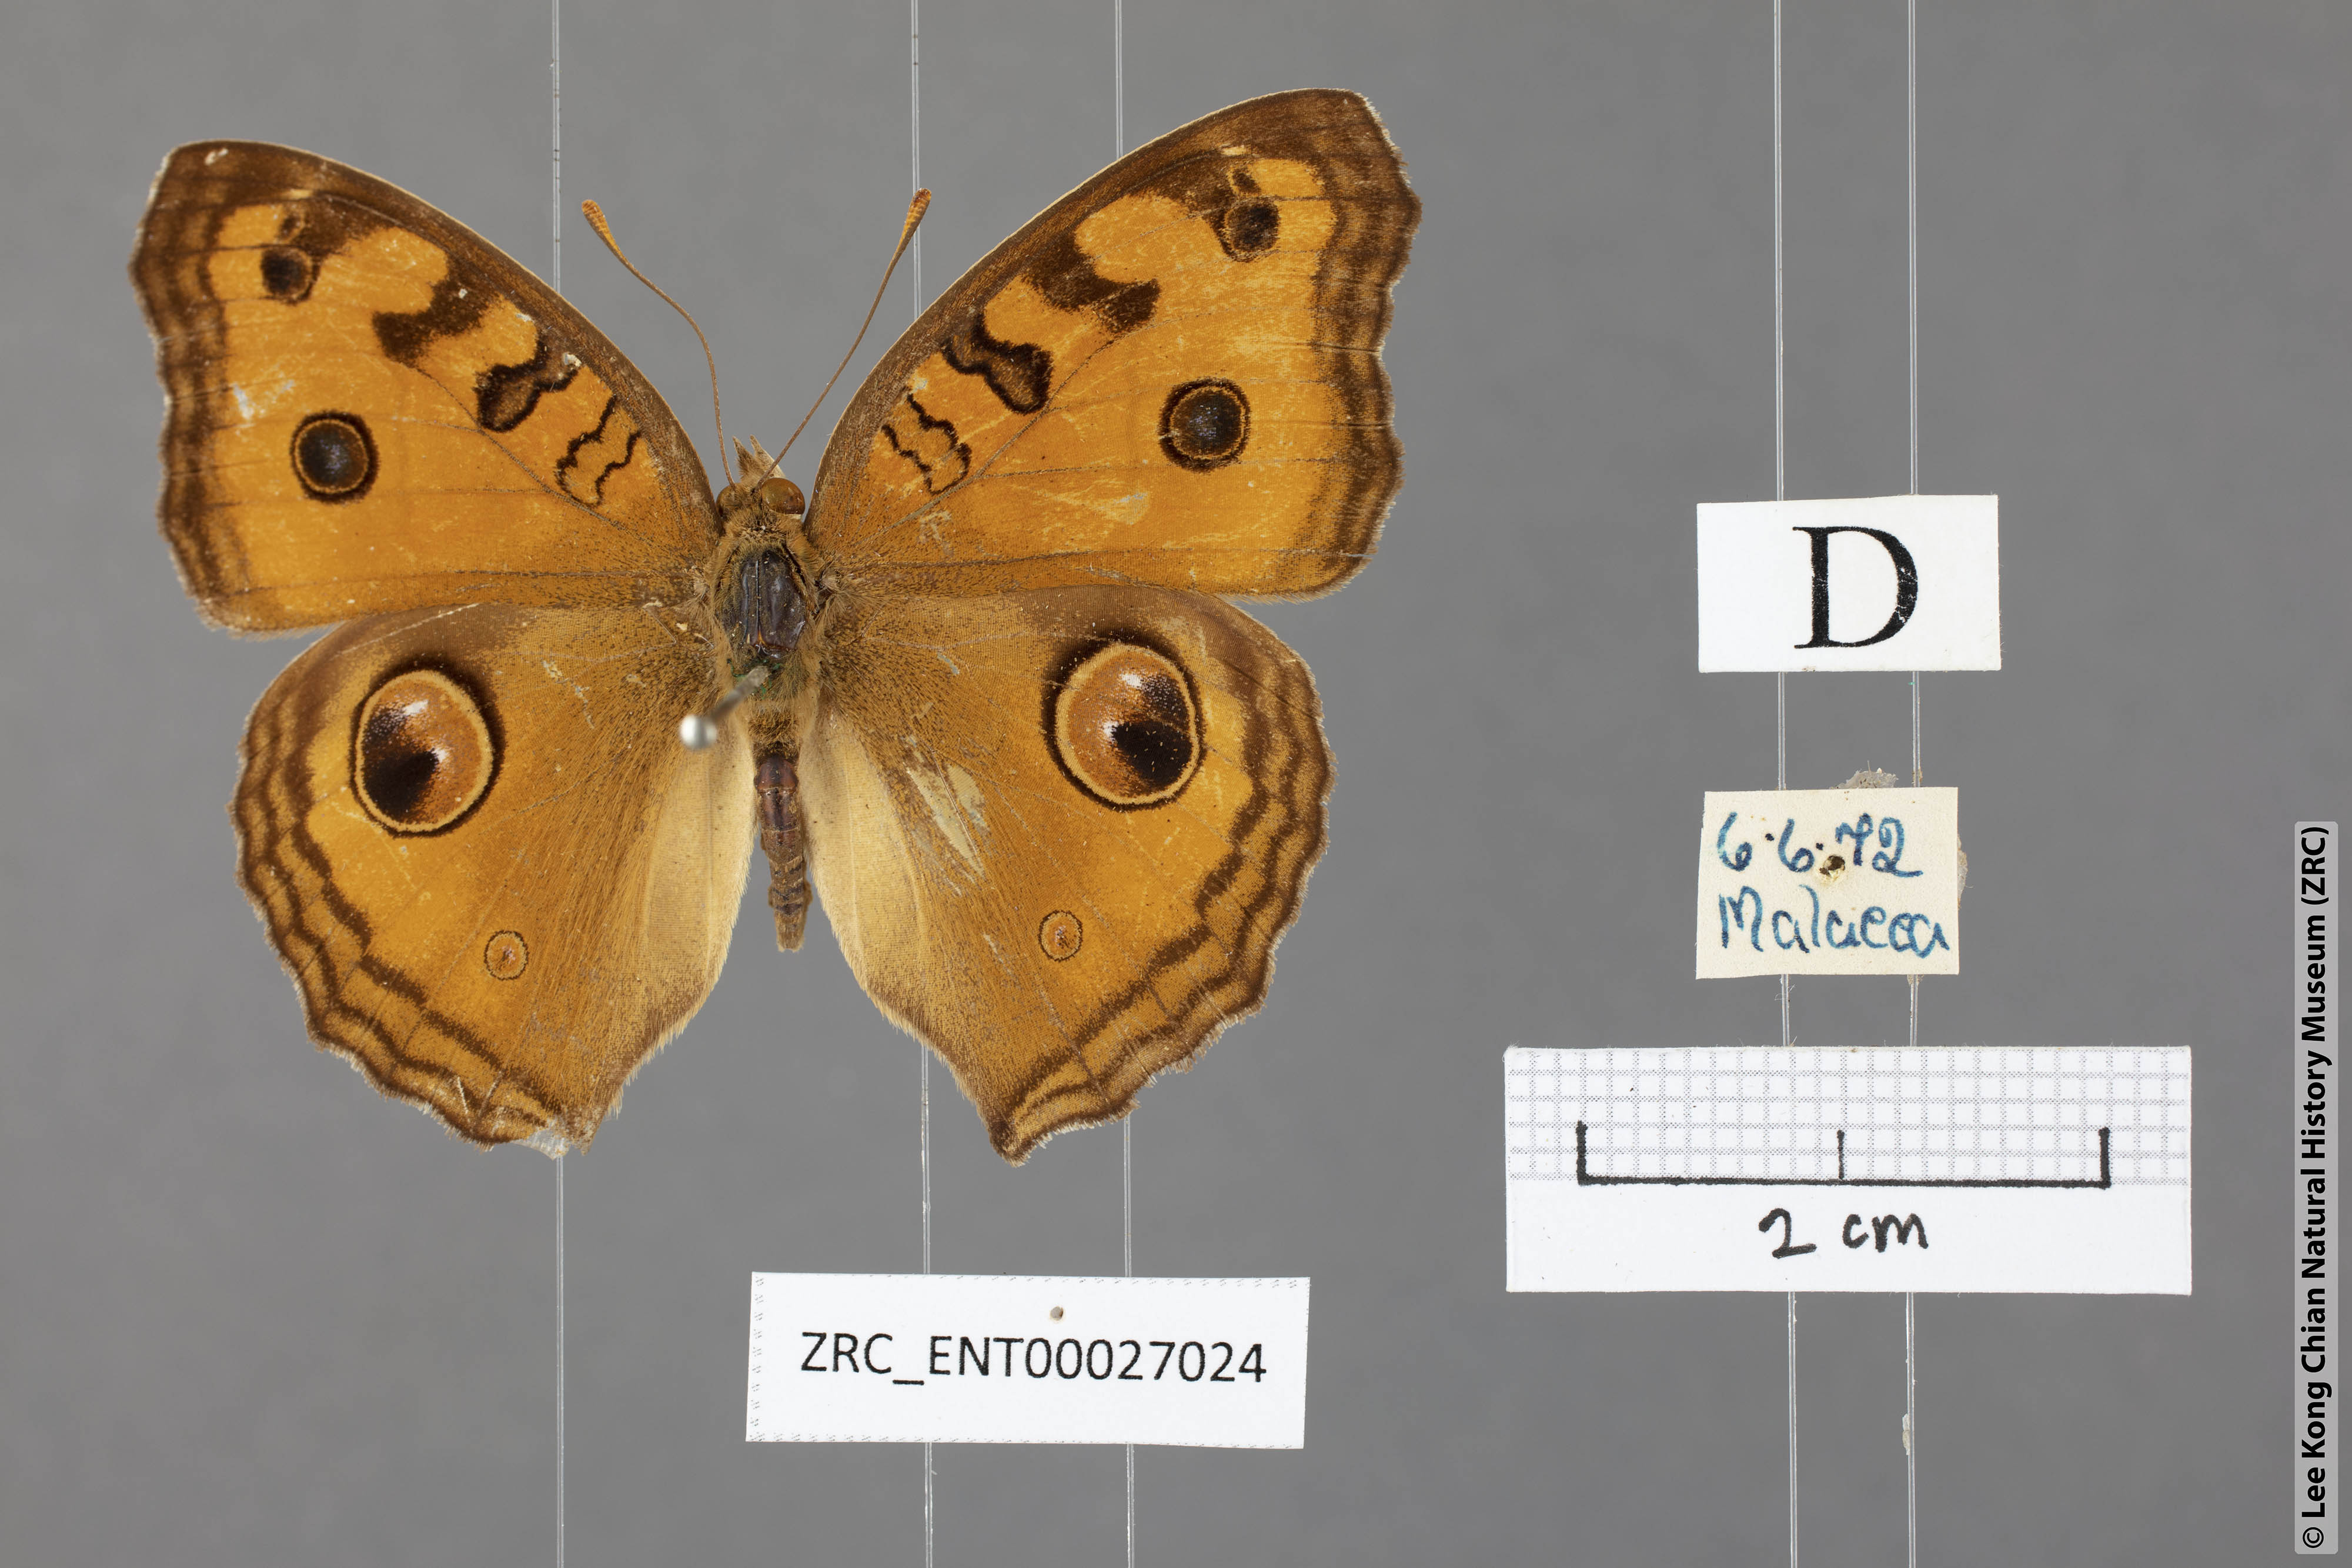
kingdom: Animalia
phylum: Arthropoda
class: Insecta
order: Lepidoptera
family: Nymphalidae
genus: Junonia
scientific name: Junonia almana
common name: Peacock pansy
